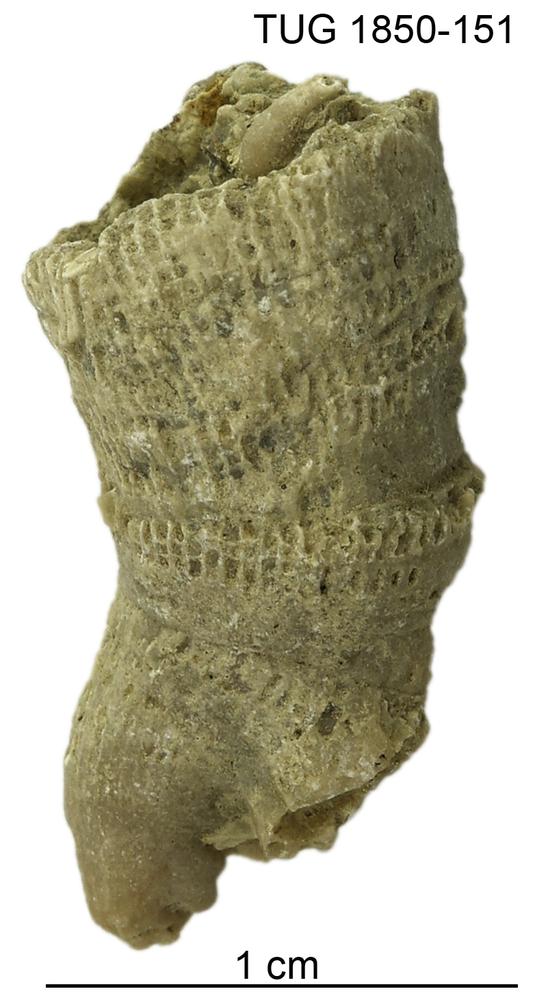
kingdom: Animalia
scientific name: Animalia
